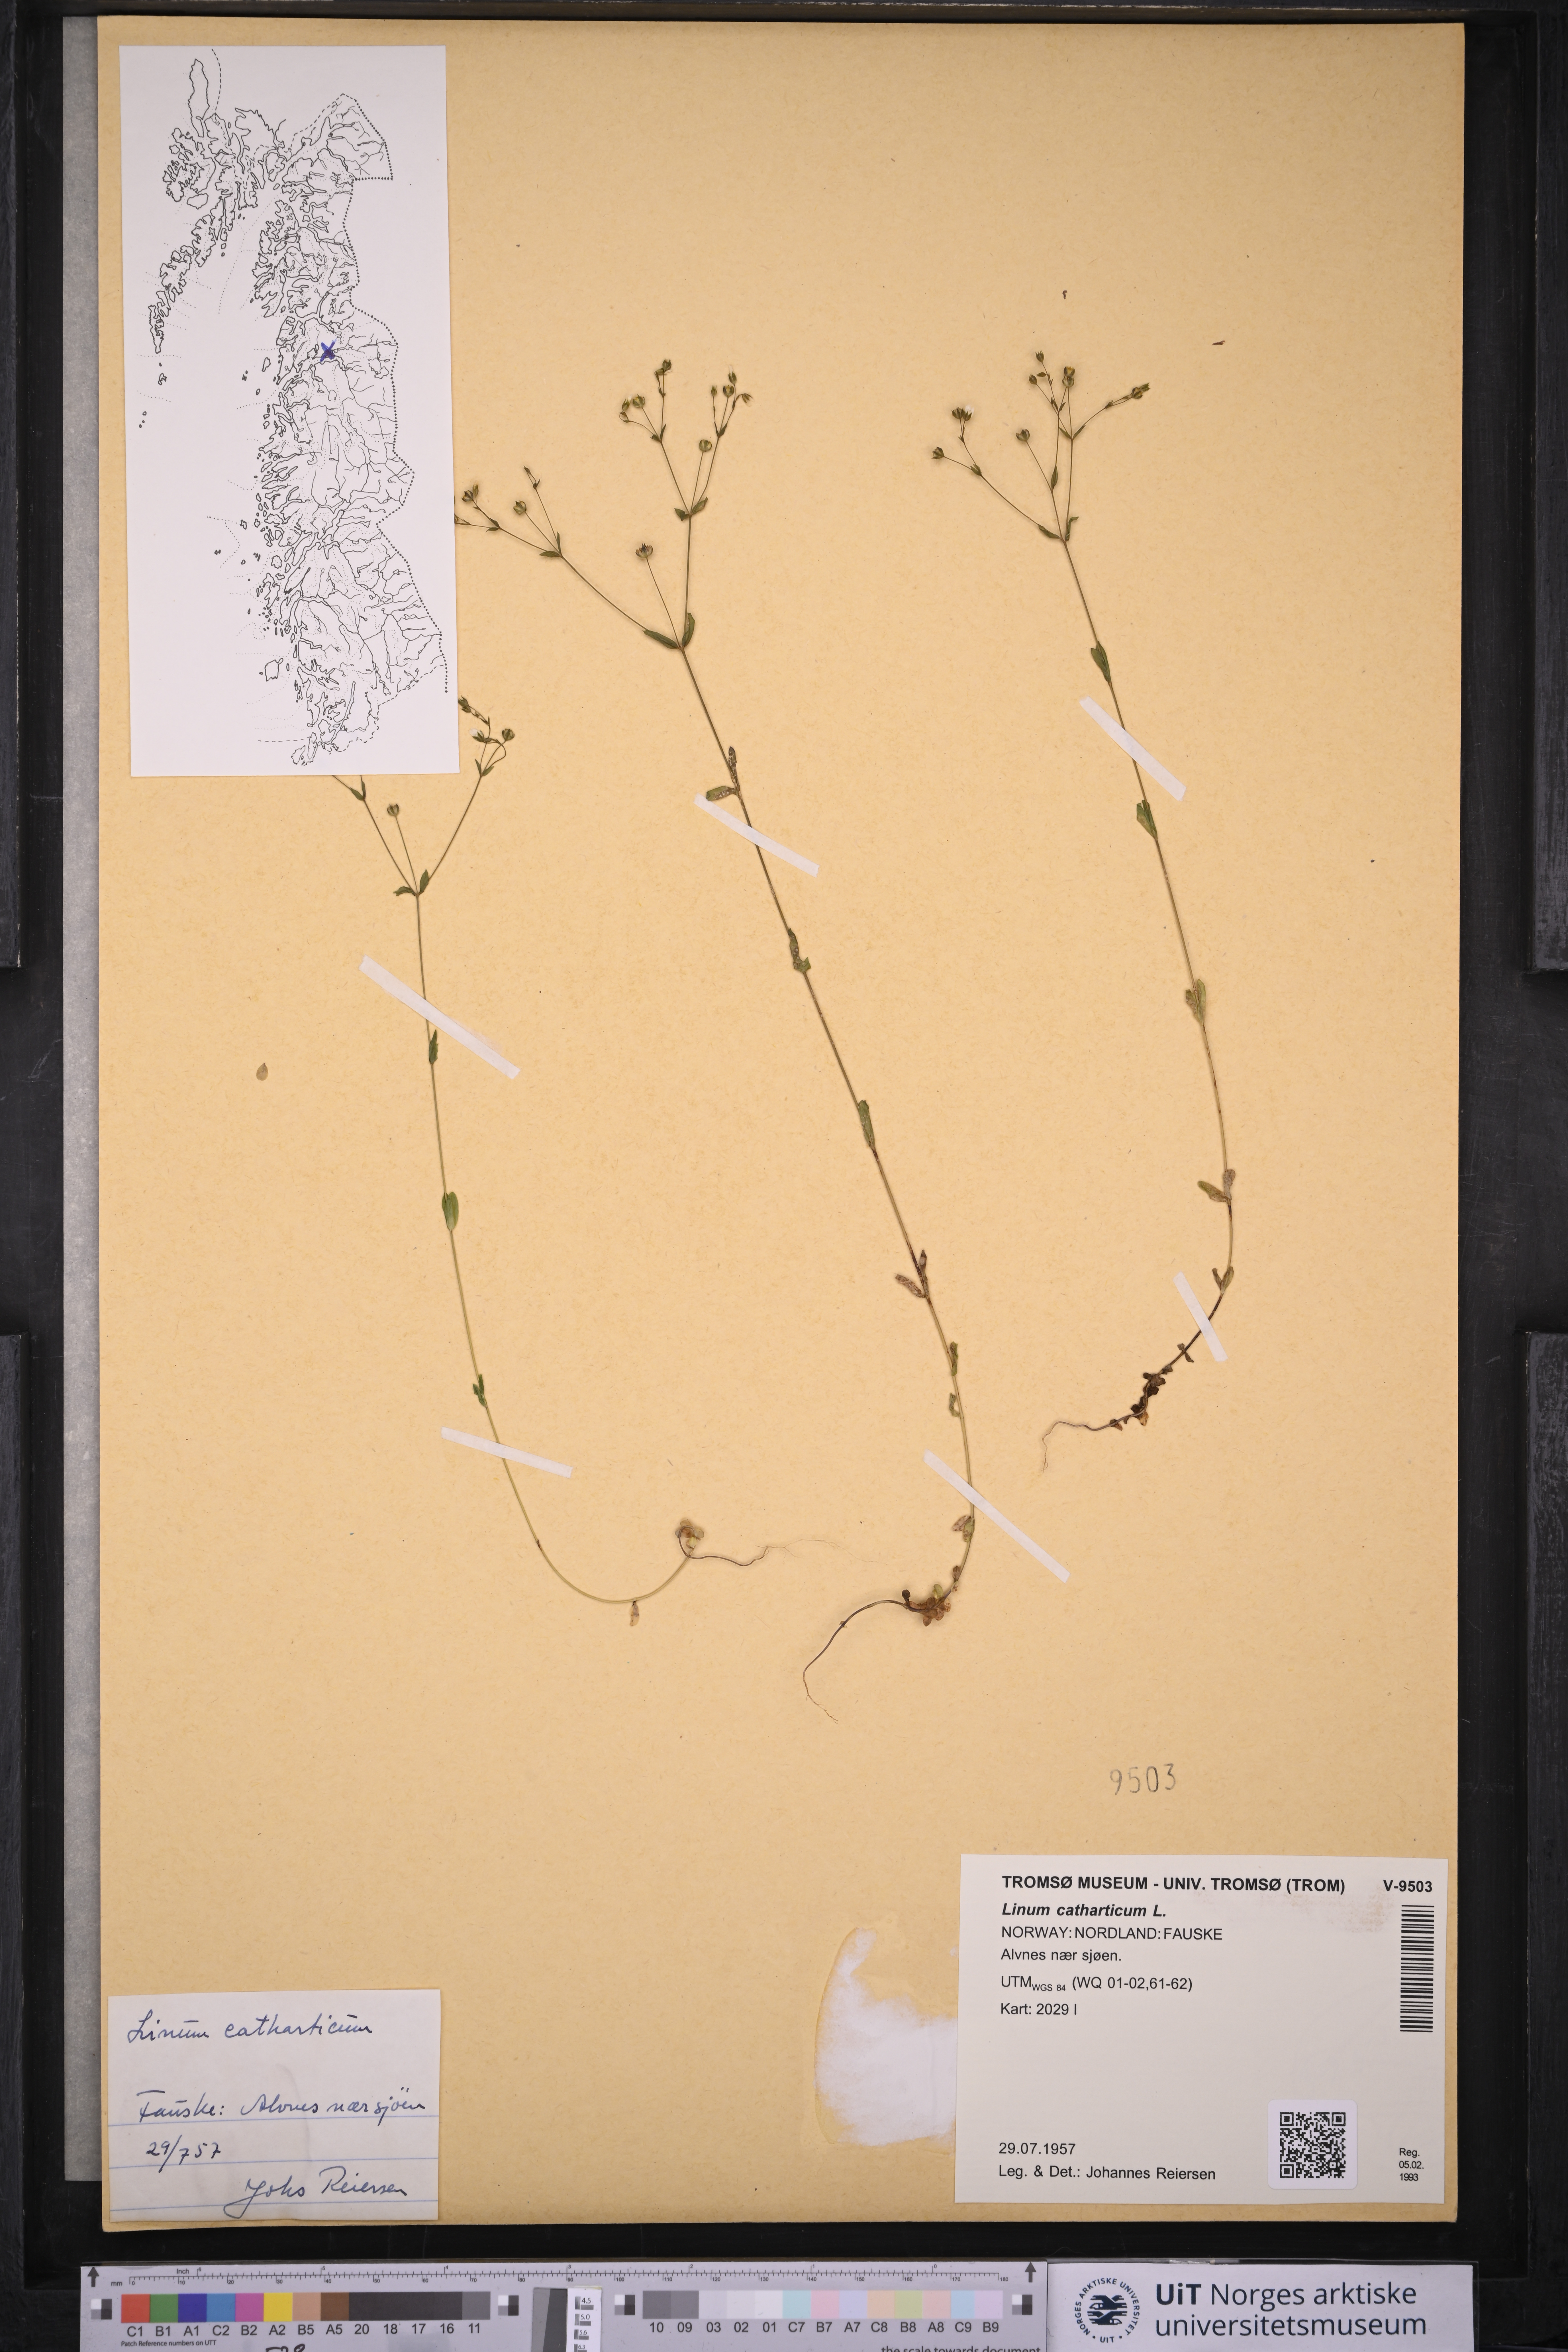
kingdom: Plantae
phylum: Tracheophyta
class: Magnoliopsida
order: Malpighiales
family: Linaceae
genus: Linum
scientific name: Linum catharticum
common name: Fairy flax
